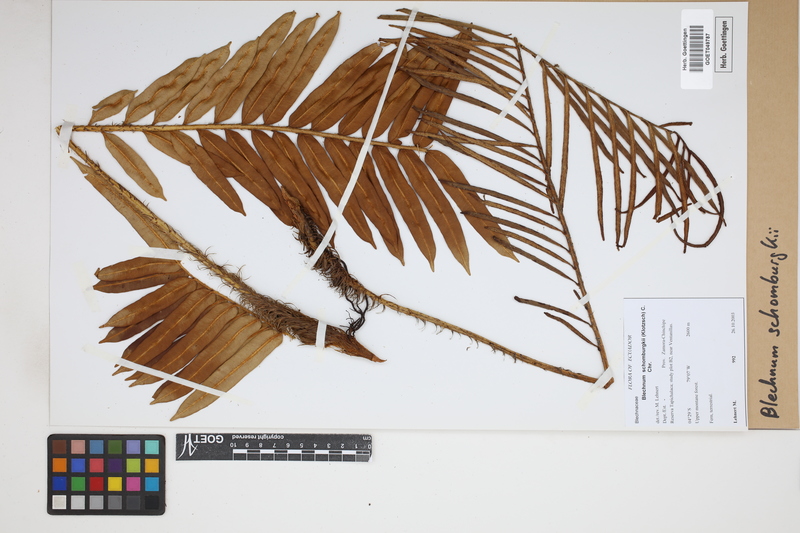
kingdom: Plantae
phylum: Tracheophyta
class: Polypodiopsida
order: Polypodiales
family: Blechnaceae
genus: Lomariocycas
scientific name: Lomariocycas schomburgkii
